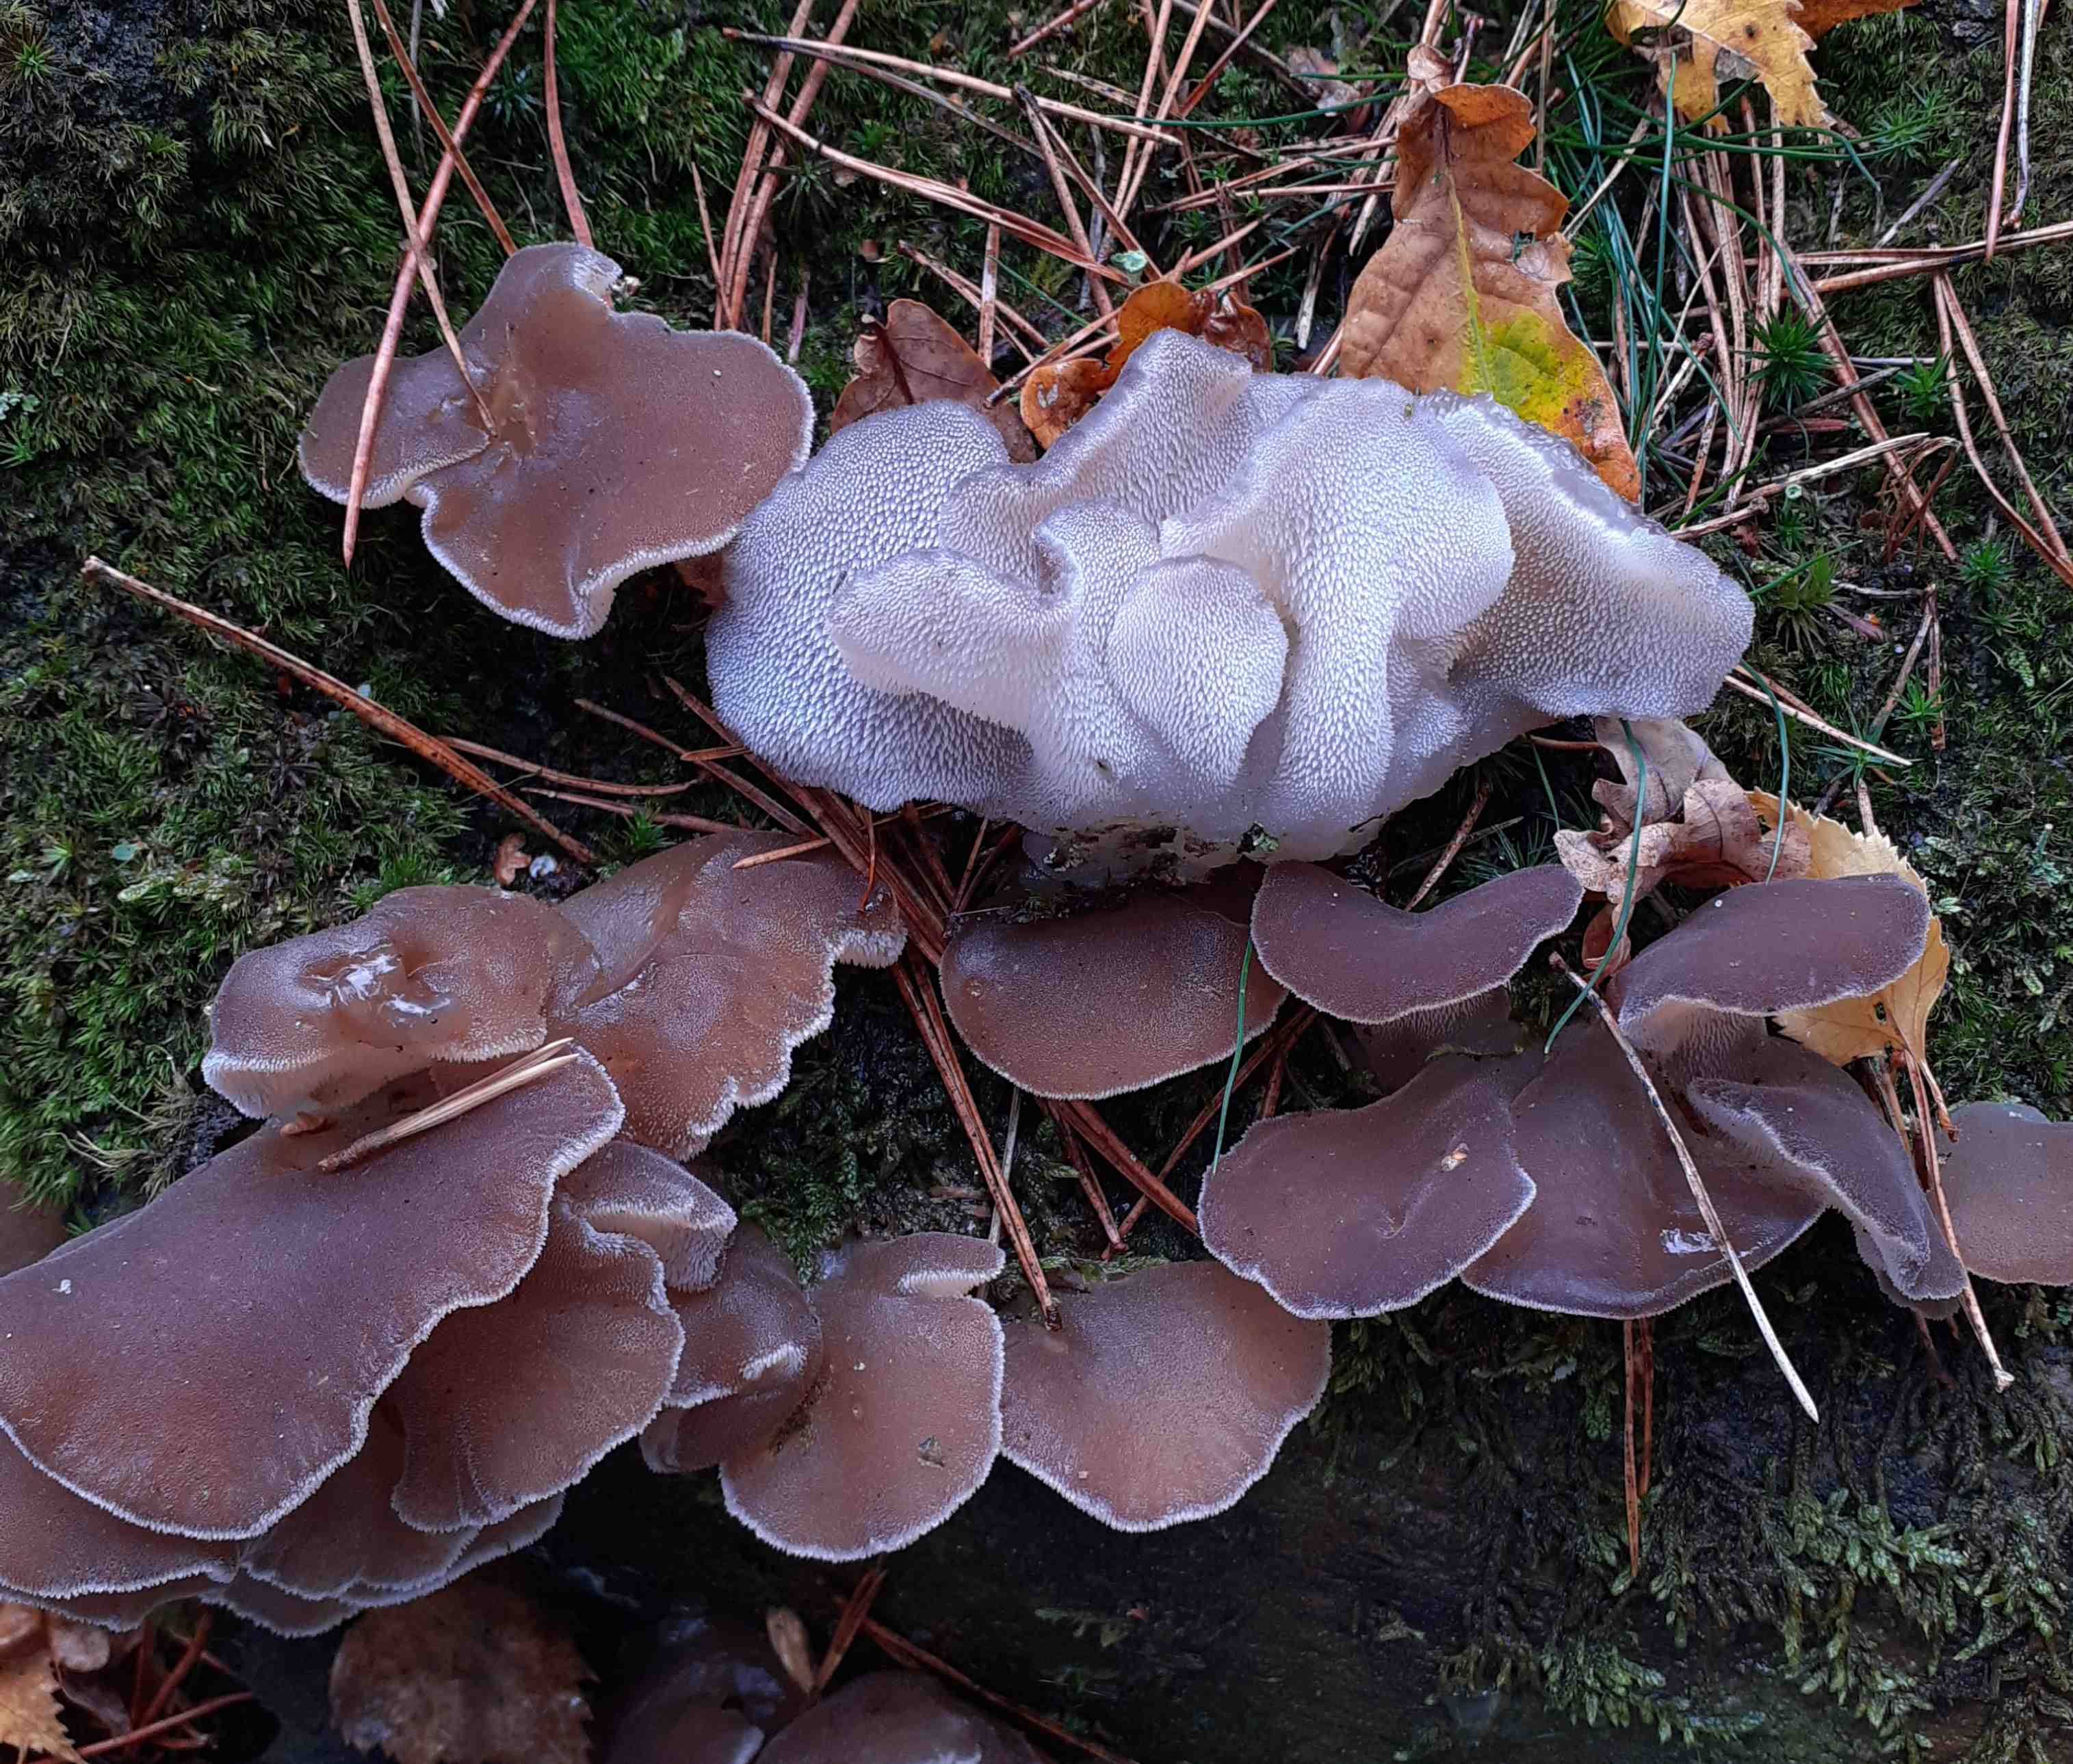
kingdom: Fungi
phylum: Basidiomycota
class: Agaricomycetes
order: Auriculariales
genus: Pseudohydnum
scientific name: Pseudohydnum gelatinosum
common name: bævretand
